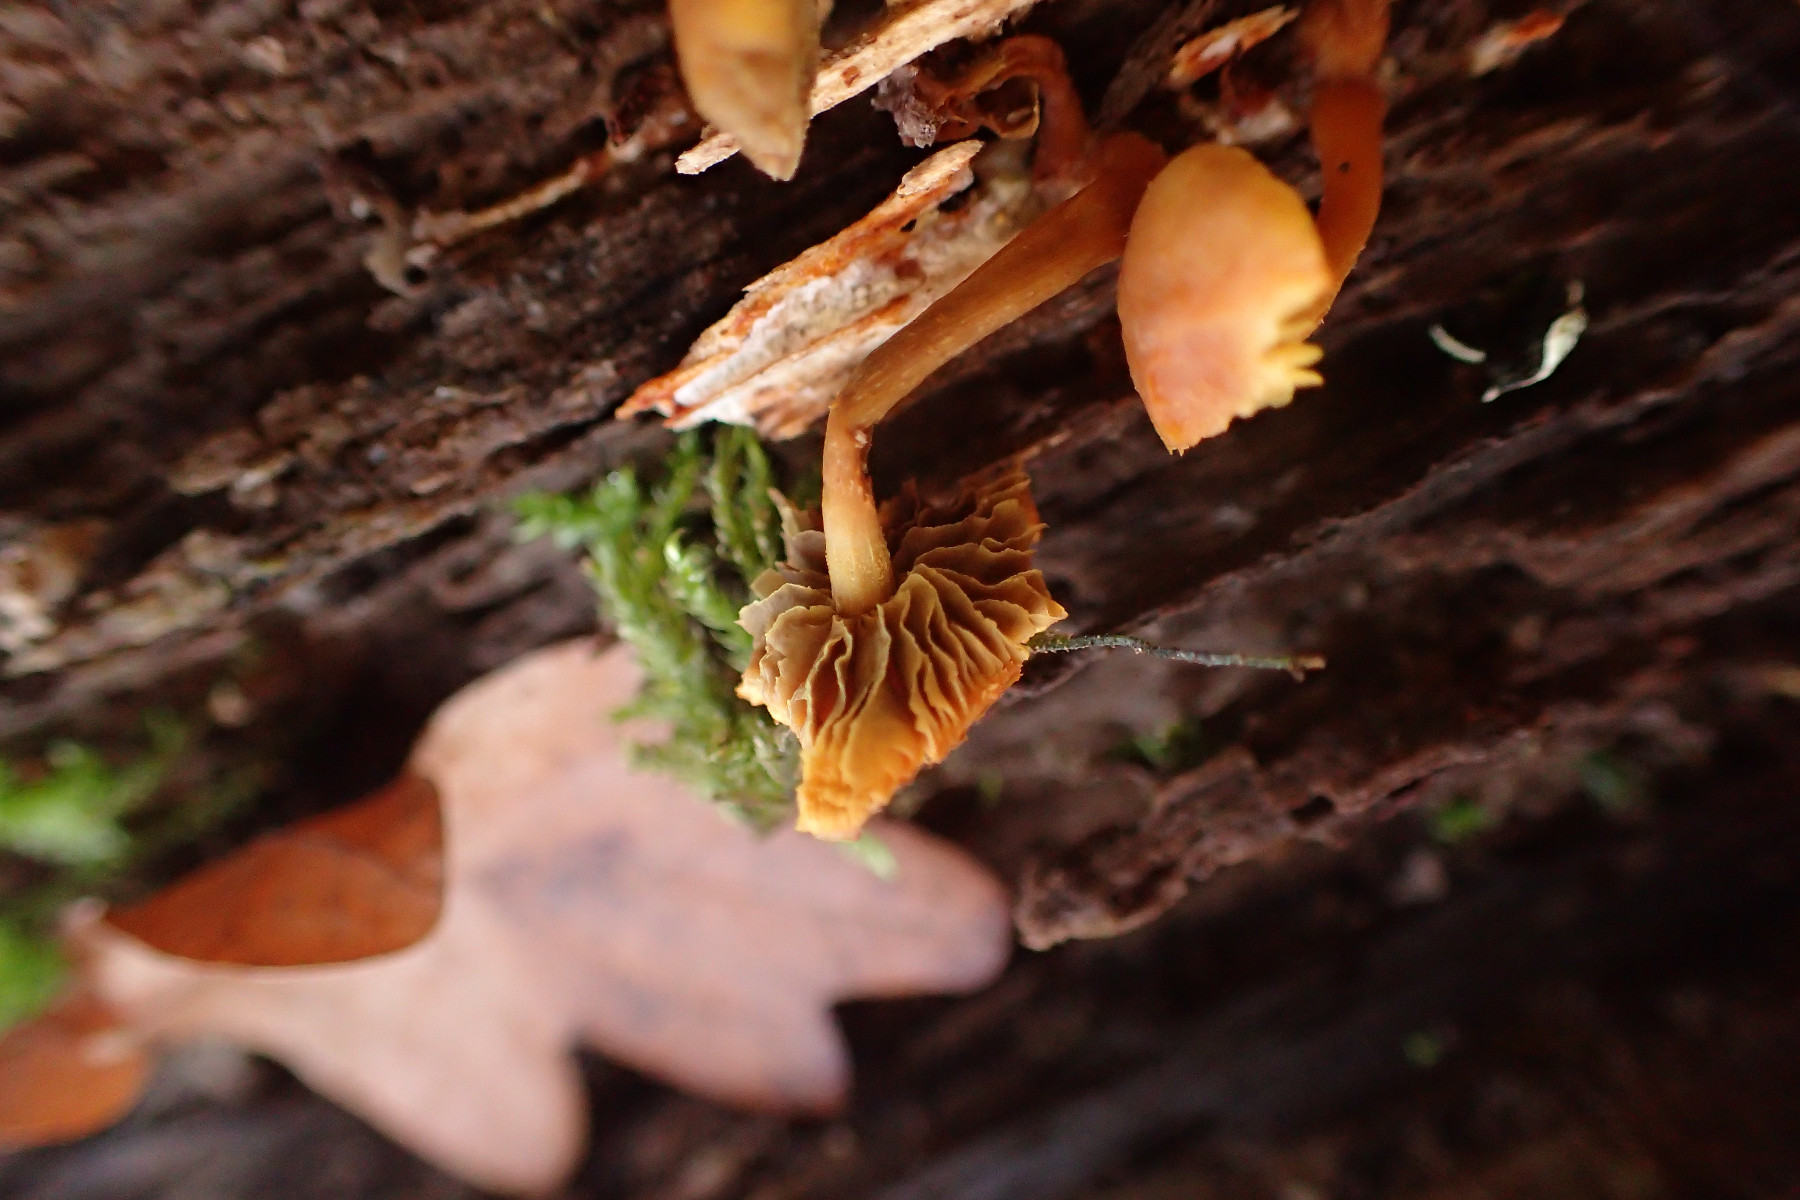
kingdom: Fungi
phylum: Basidiomycota
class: Agaricomycetes
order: Agaricales
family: Strophariaceae
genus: Hypholoma
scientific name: Hypholoma fasciculare
